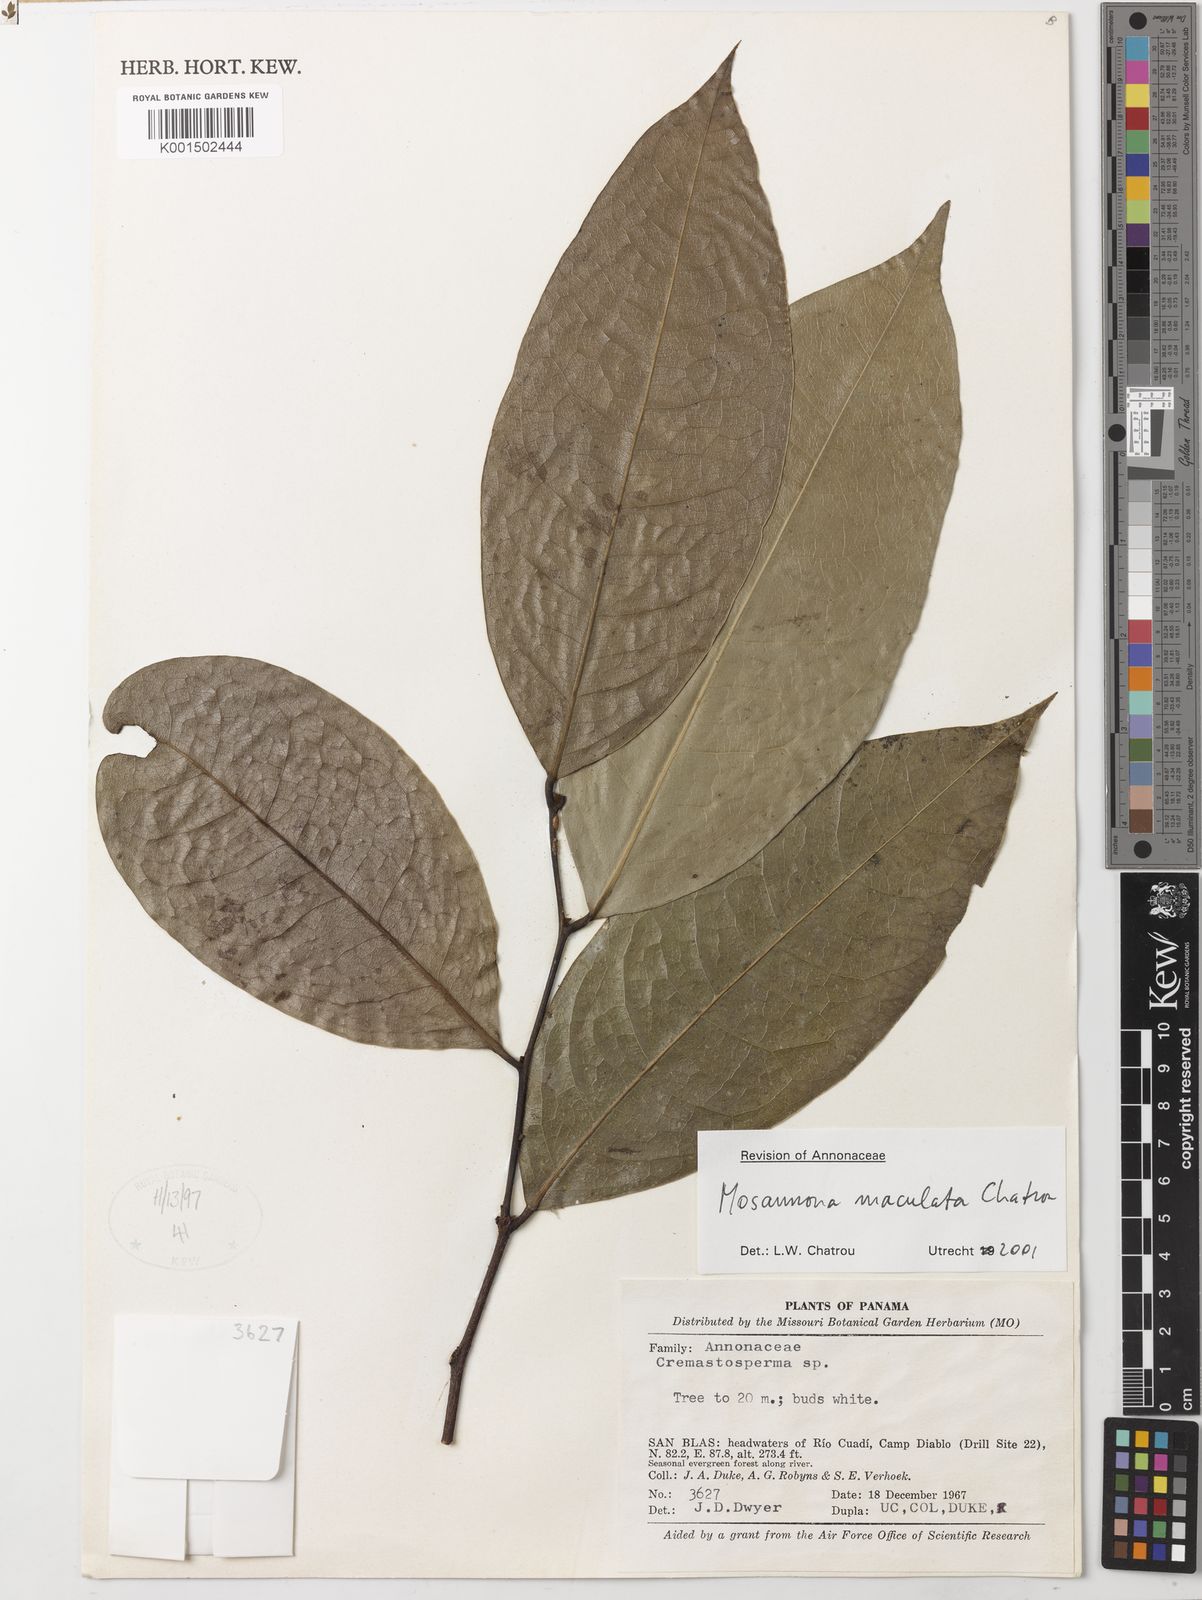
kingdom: Plantae
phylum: Tracheophyta
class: Magnoliopsida
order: Magnoliales
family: Annonaceae
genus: Mosannona
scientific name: Mosannona maculata
